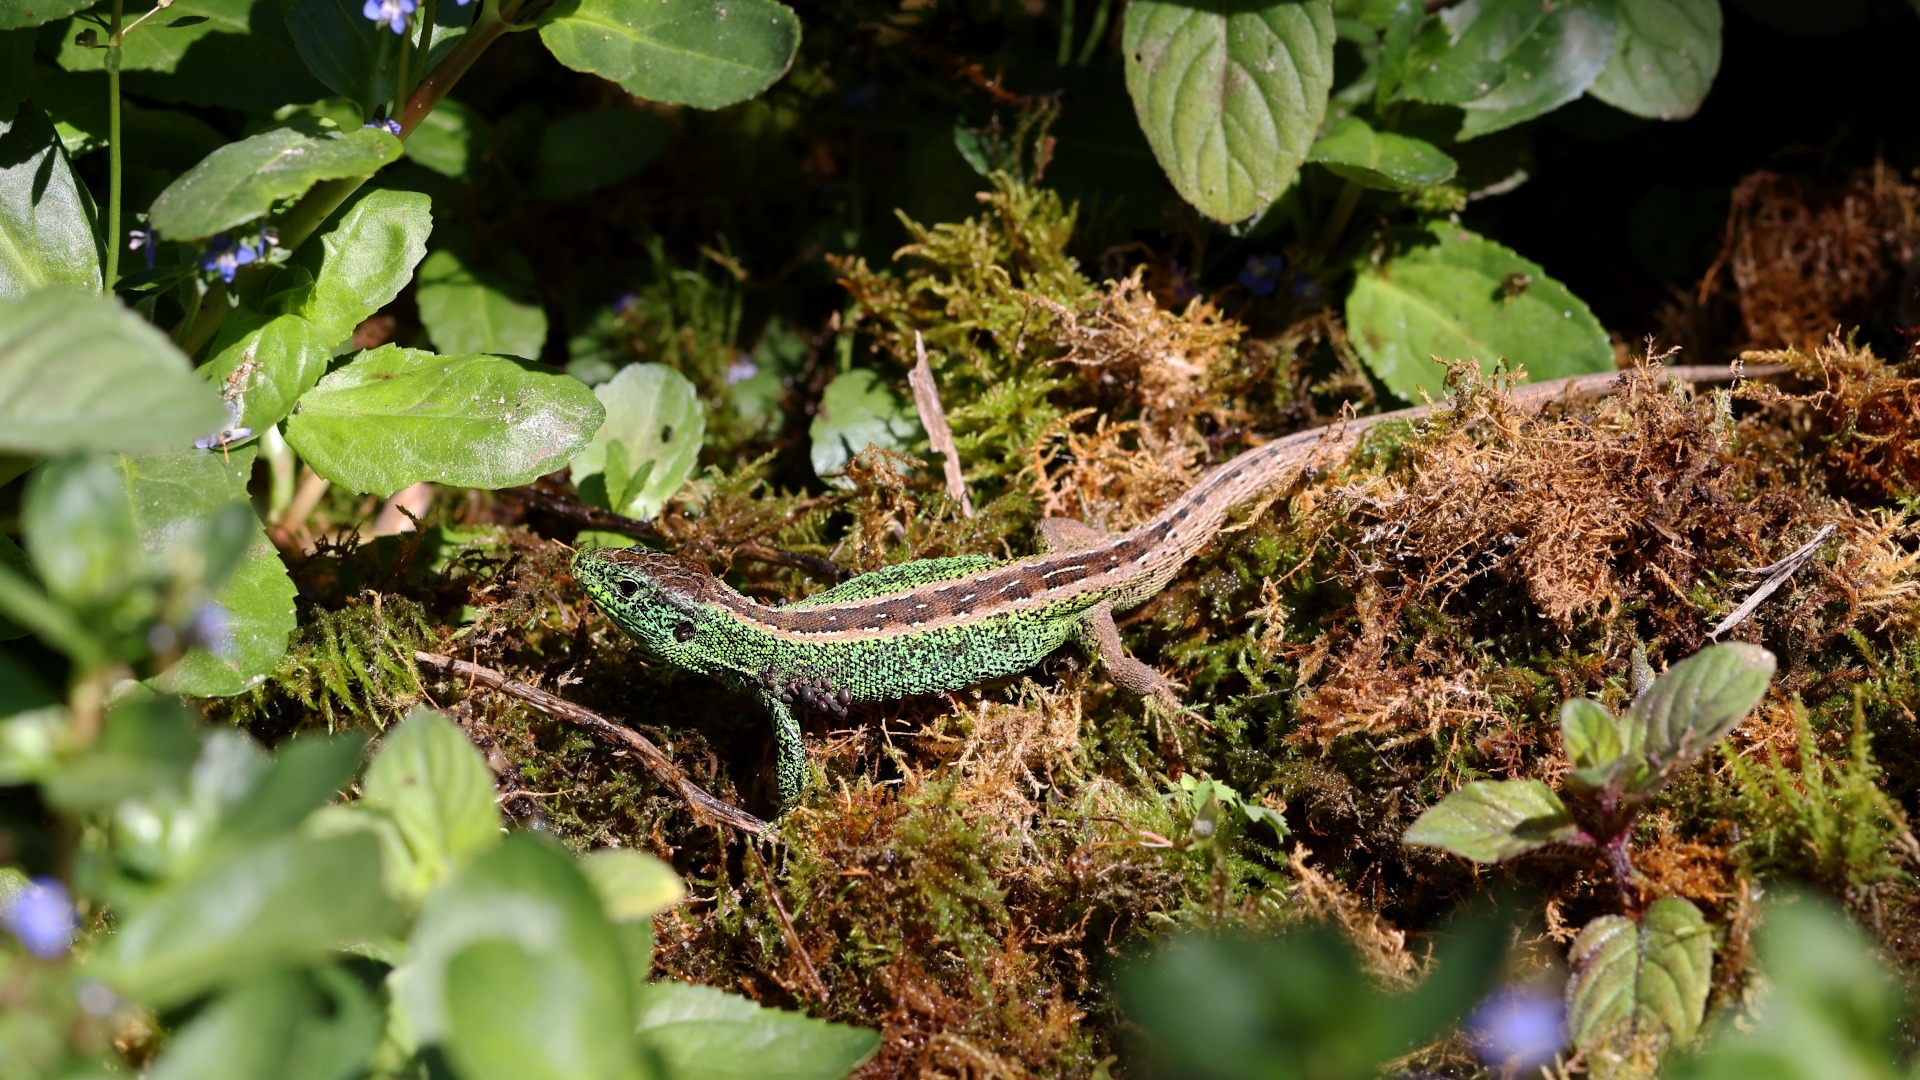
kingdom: Animalia
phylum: Chordata
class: Squamata
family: Lacertidae
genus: Lacerta
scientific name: Lacerta agilis
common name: Markfirben
